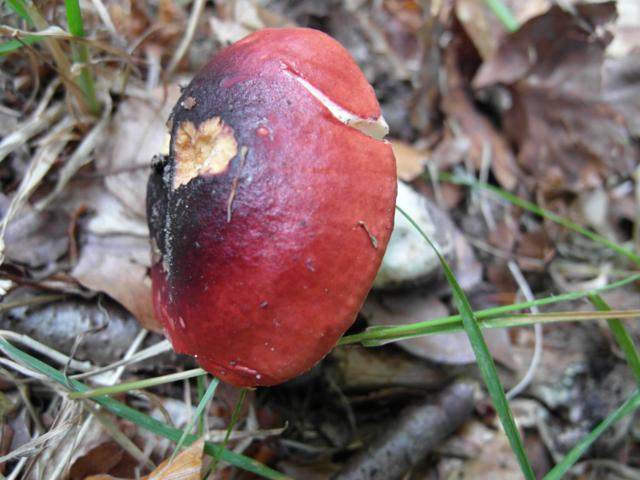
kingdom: Fungi
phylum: Basidiomycota
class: Agaricomycetes
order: Russulales
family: Russulaceae
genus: Russula
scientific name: Russula
